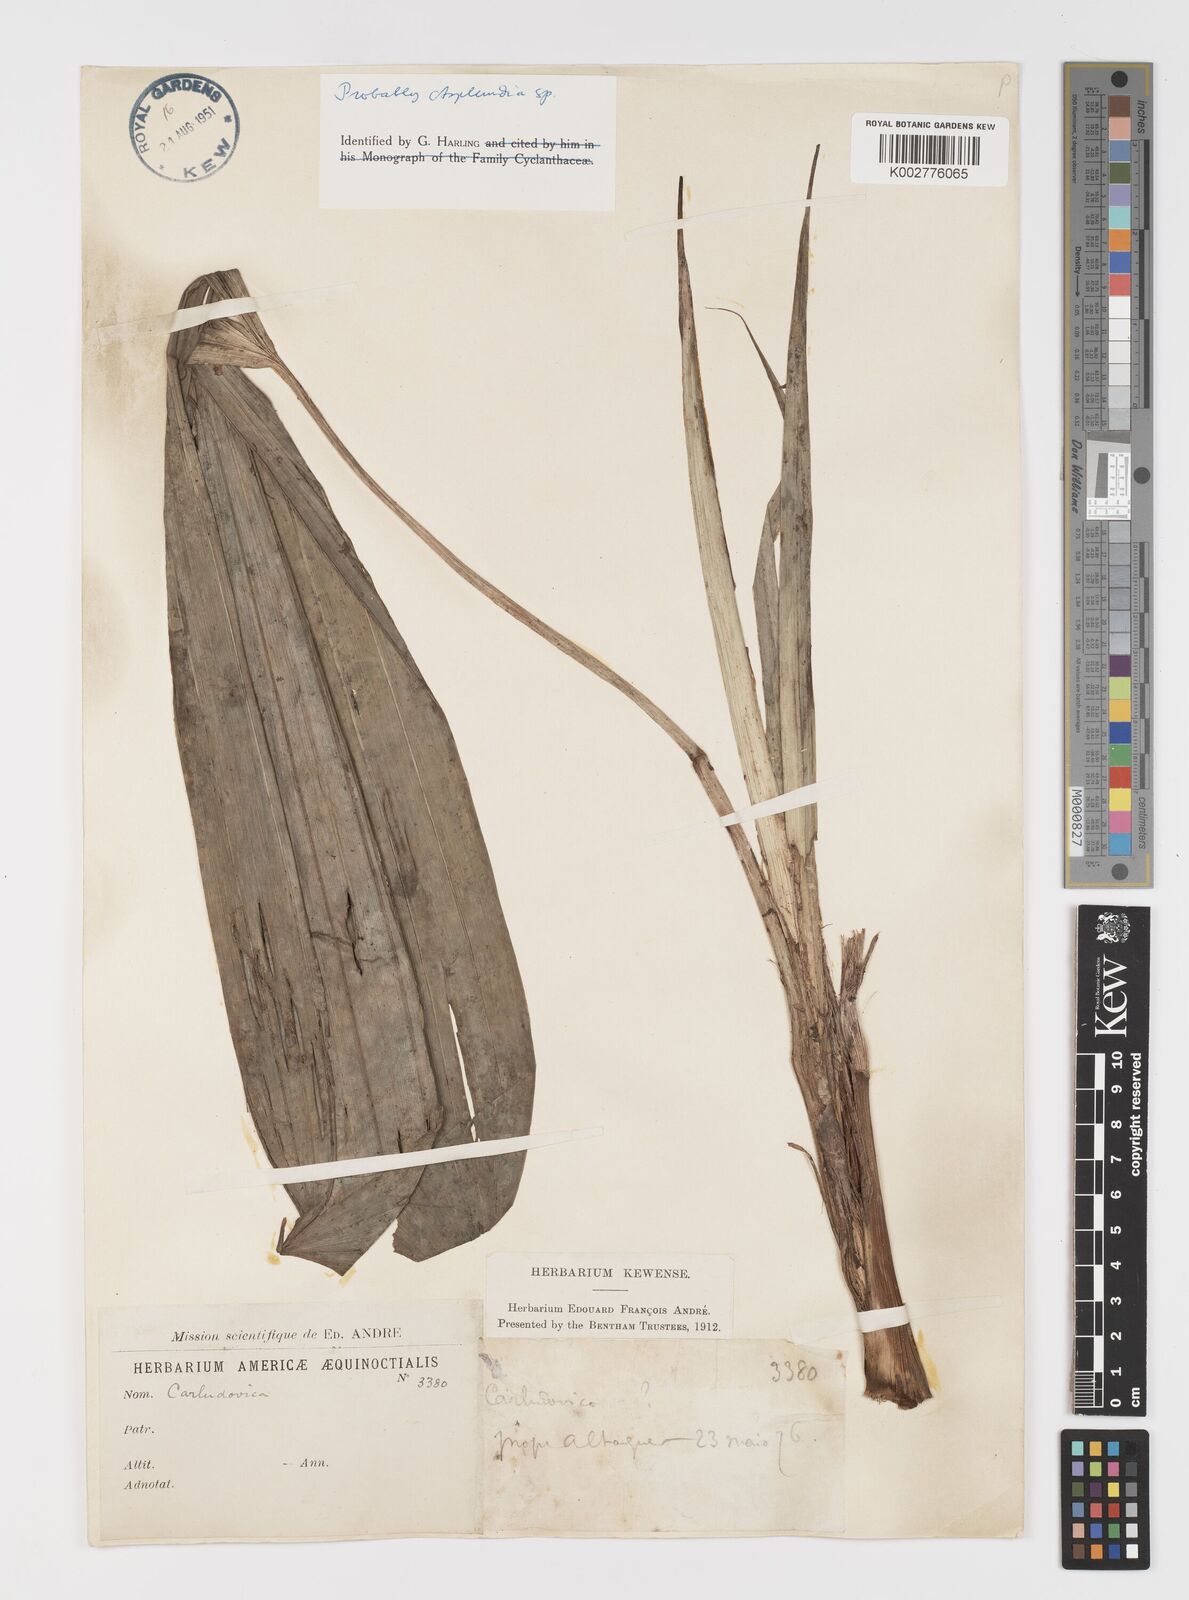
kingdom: Plantae
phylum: Tracheophyta
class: Liliopsida
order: Pandanales
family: Cyclanthaceae
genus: Asplundia
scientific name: Asplundia
